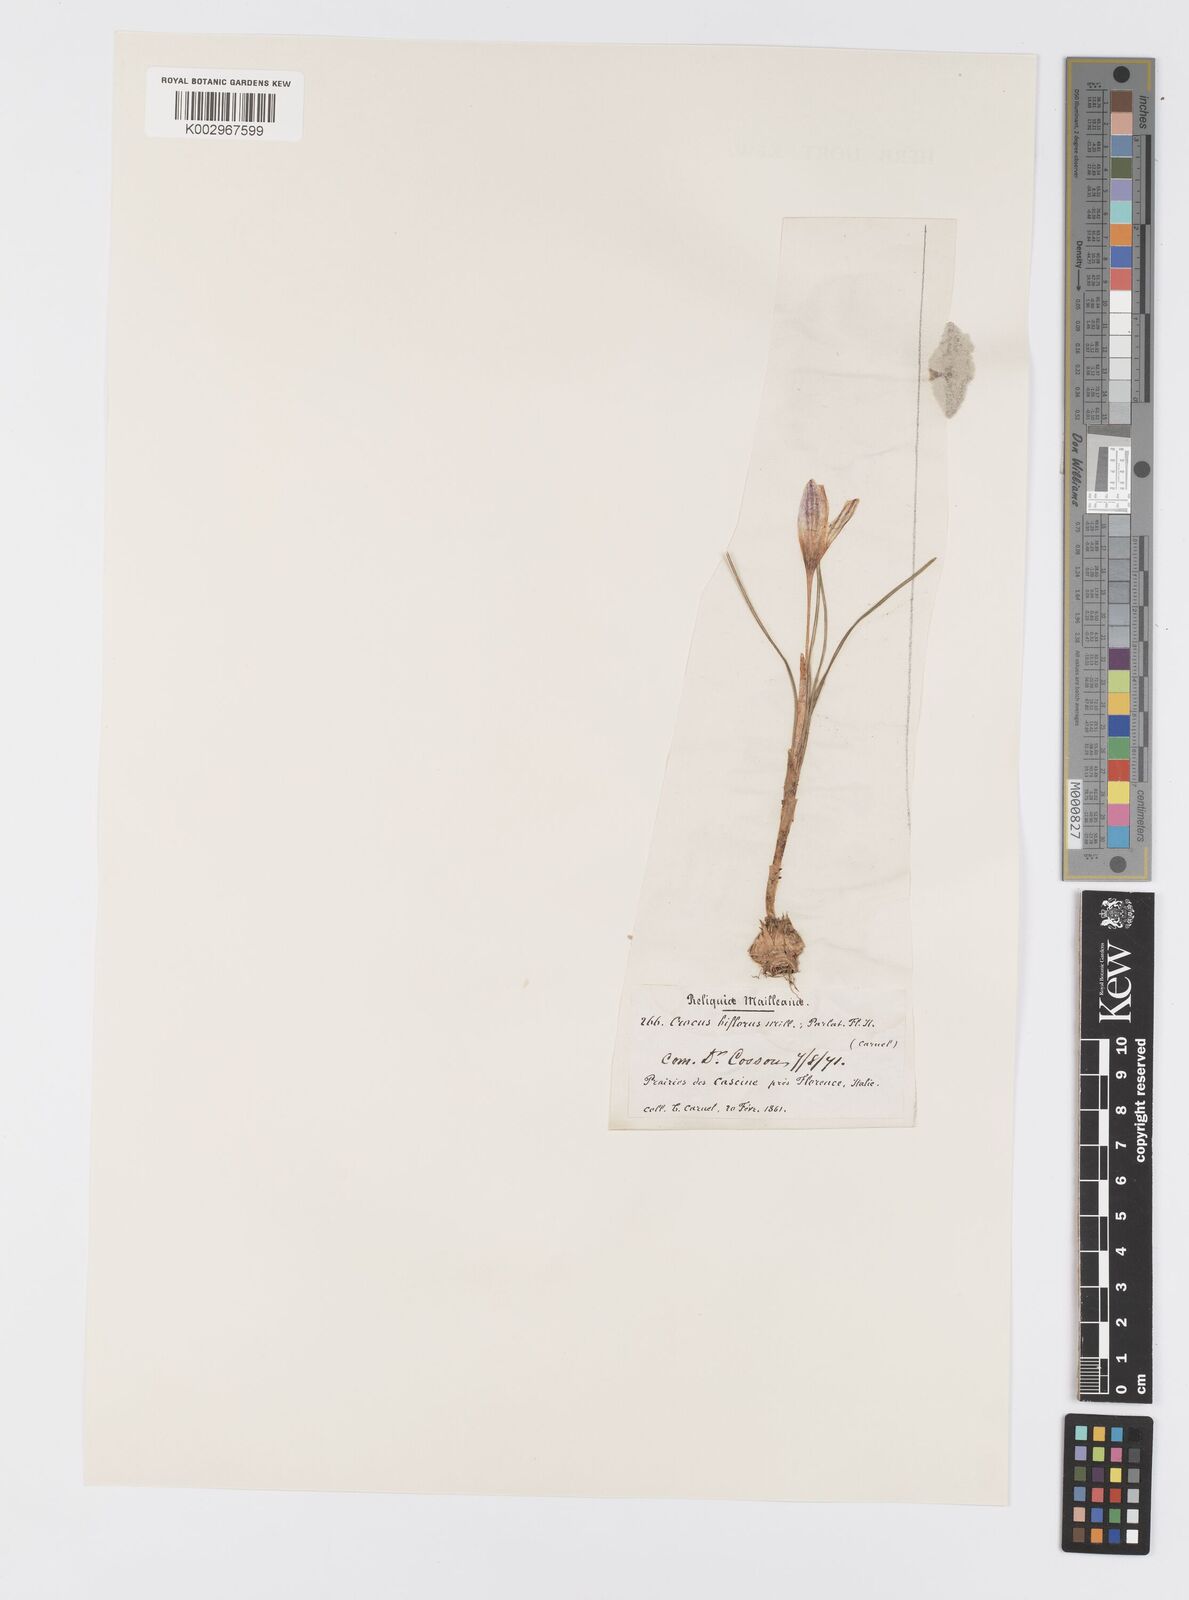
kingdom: Plantae
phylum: Tracheophyta
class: Liliopsida
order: Asparagales
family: Iridaceae
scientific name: Iridaceae
